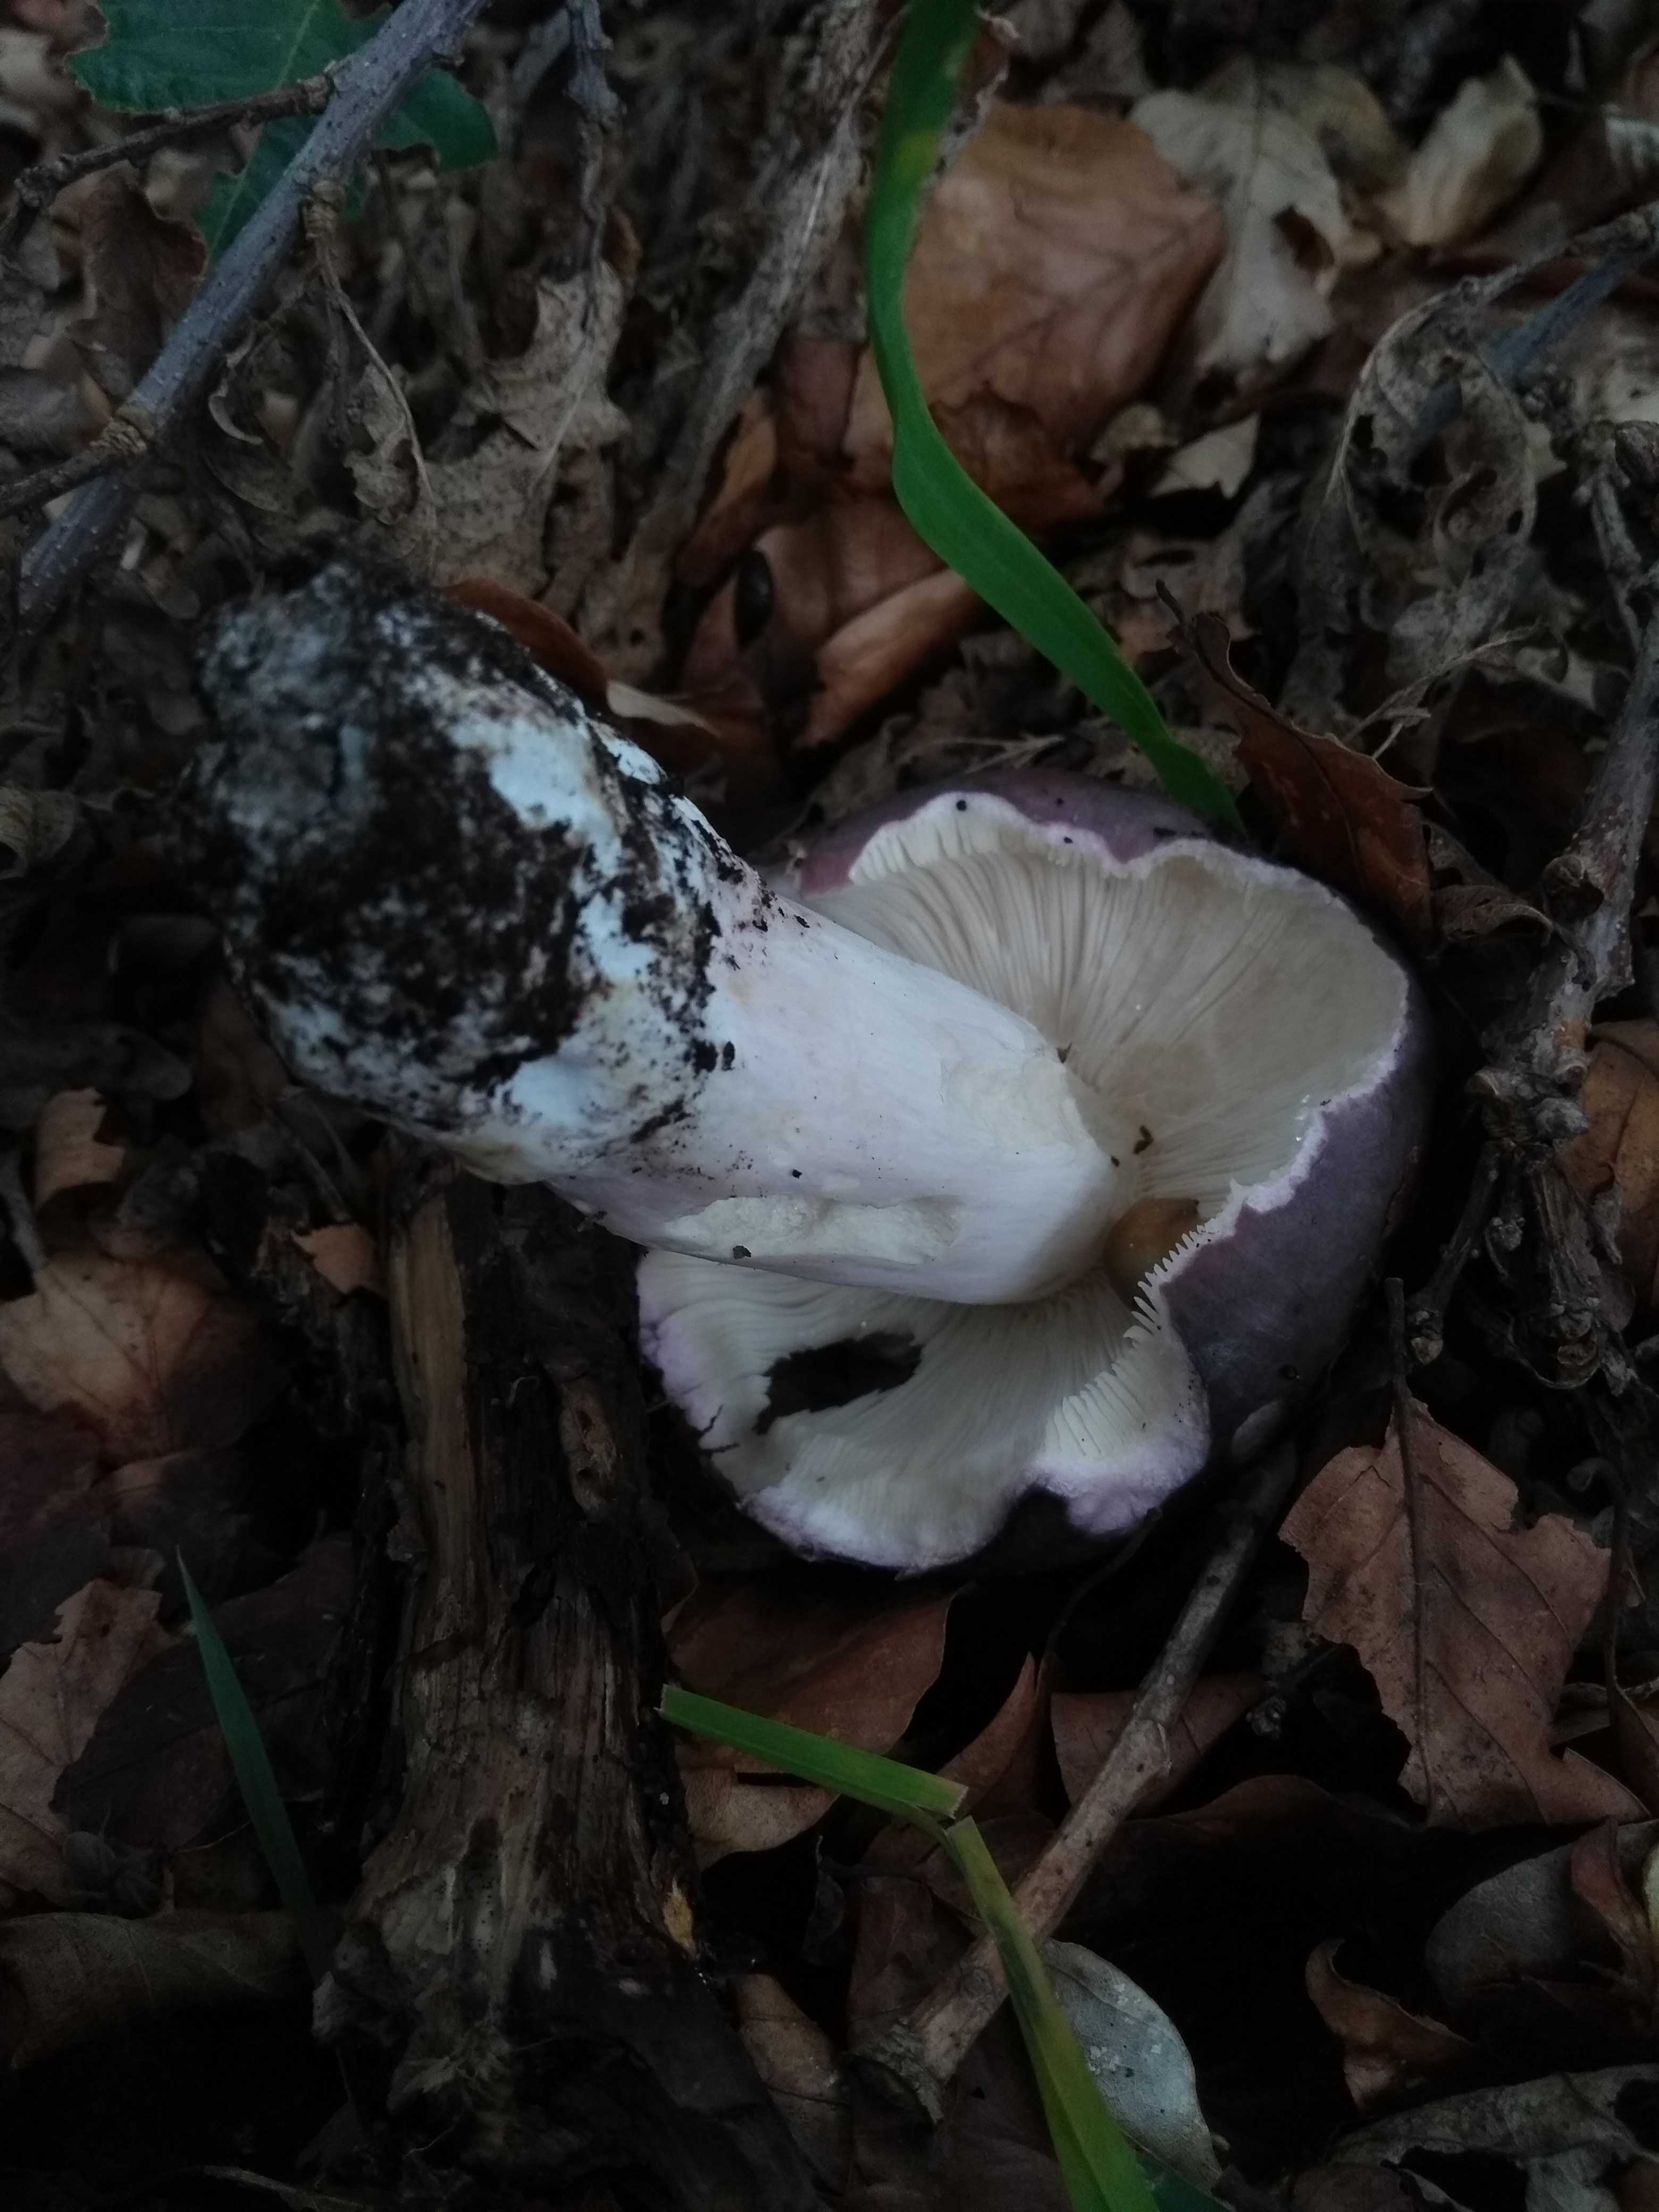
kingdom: Fungi
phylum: Basidiomycota
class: Agaricomycetes
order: Russulales
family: Russulaceae
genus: Russula
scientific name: Russula cyanoxantha
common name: broget skørhat
